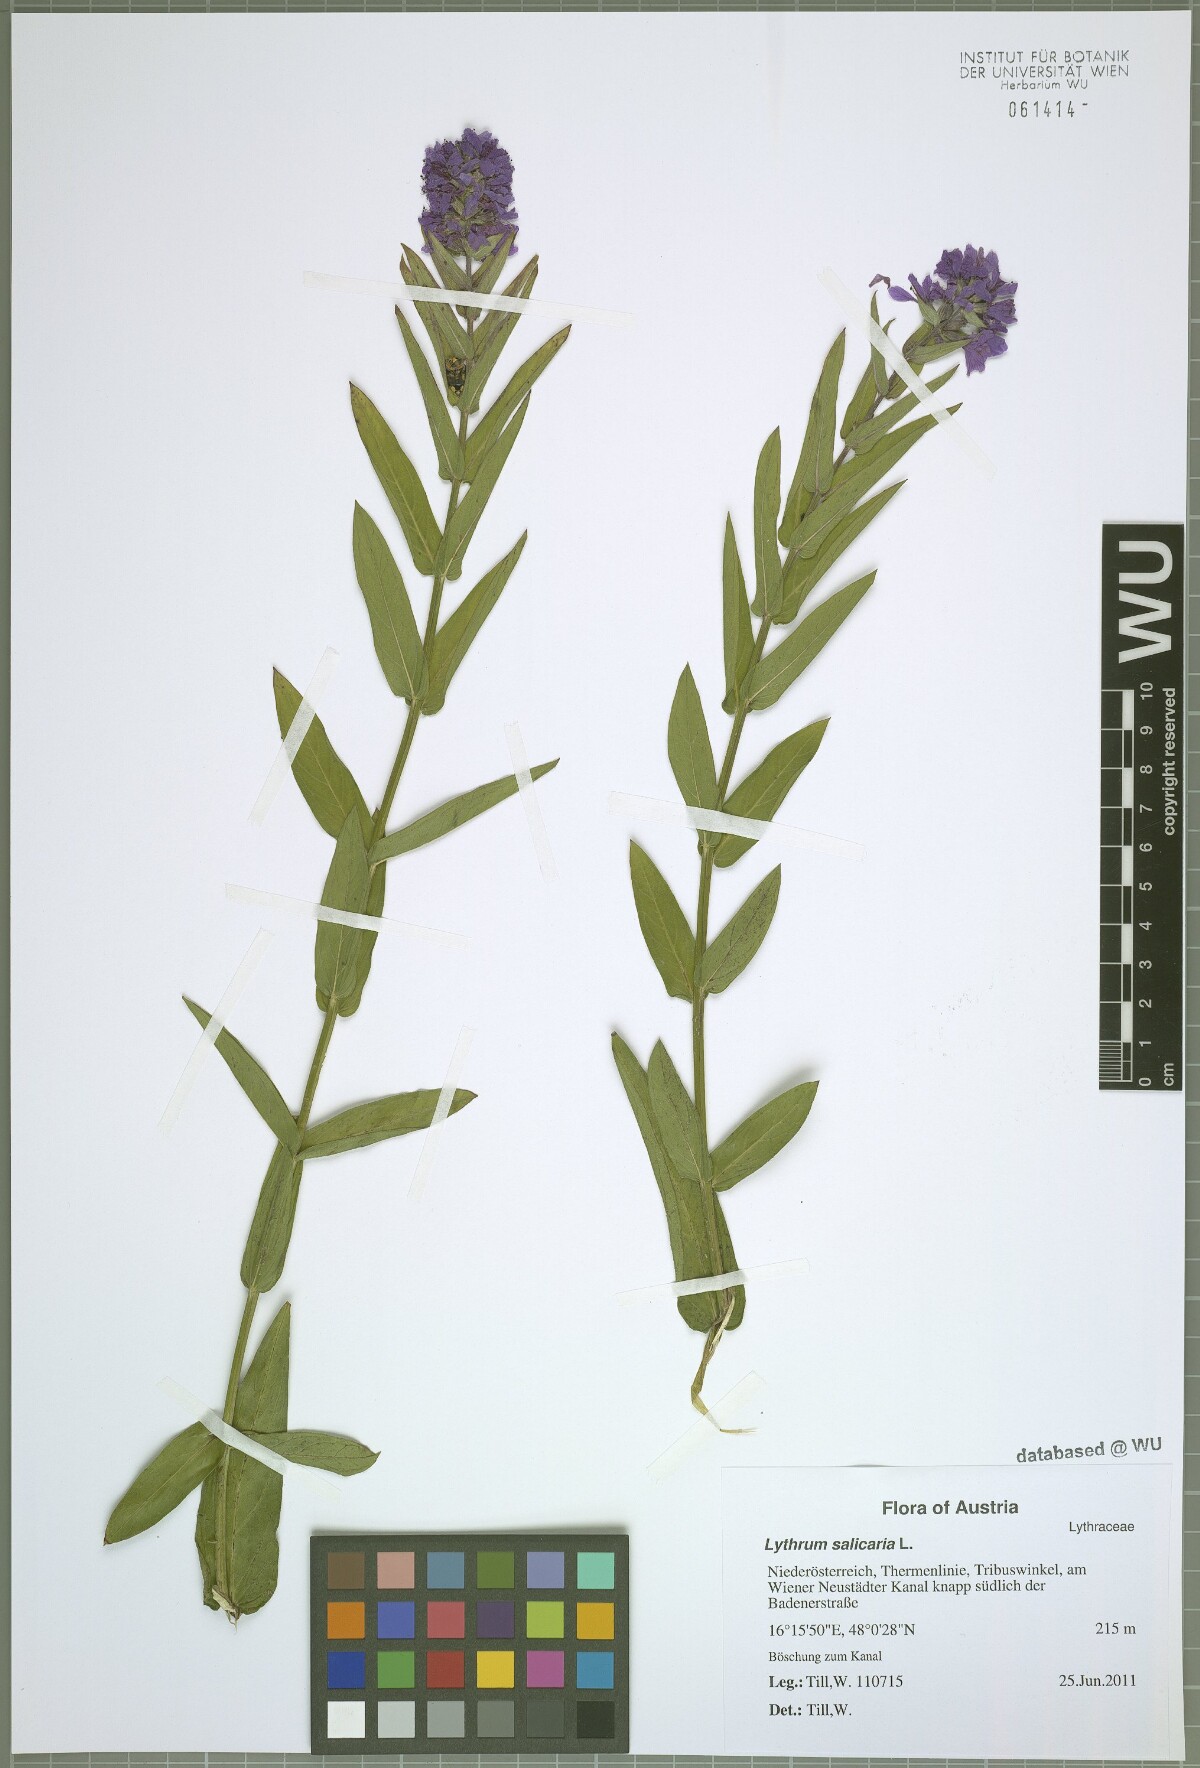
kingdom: Plantae
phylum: Tracheophyta
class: Magnoliopsida
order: Myrtales
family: Lythraceae
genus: Lythrum
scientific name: Lythrum salicaria
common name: Purple loosestrife
